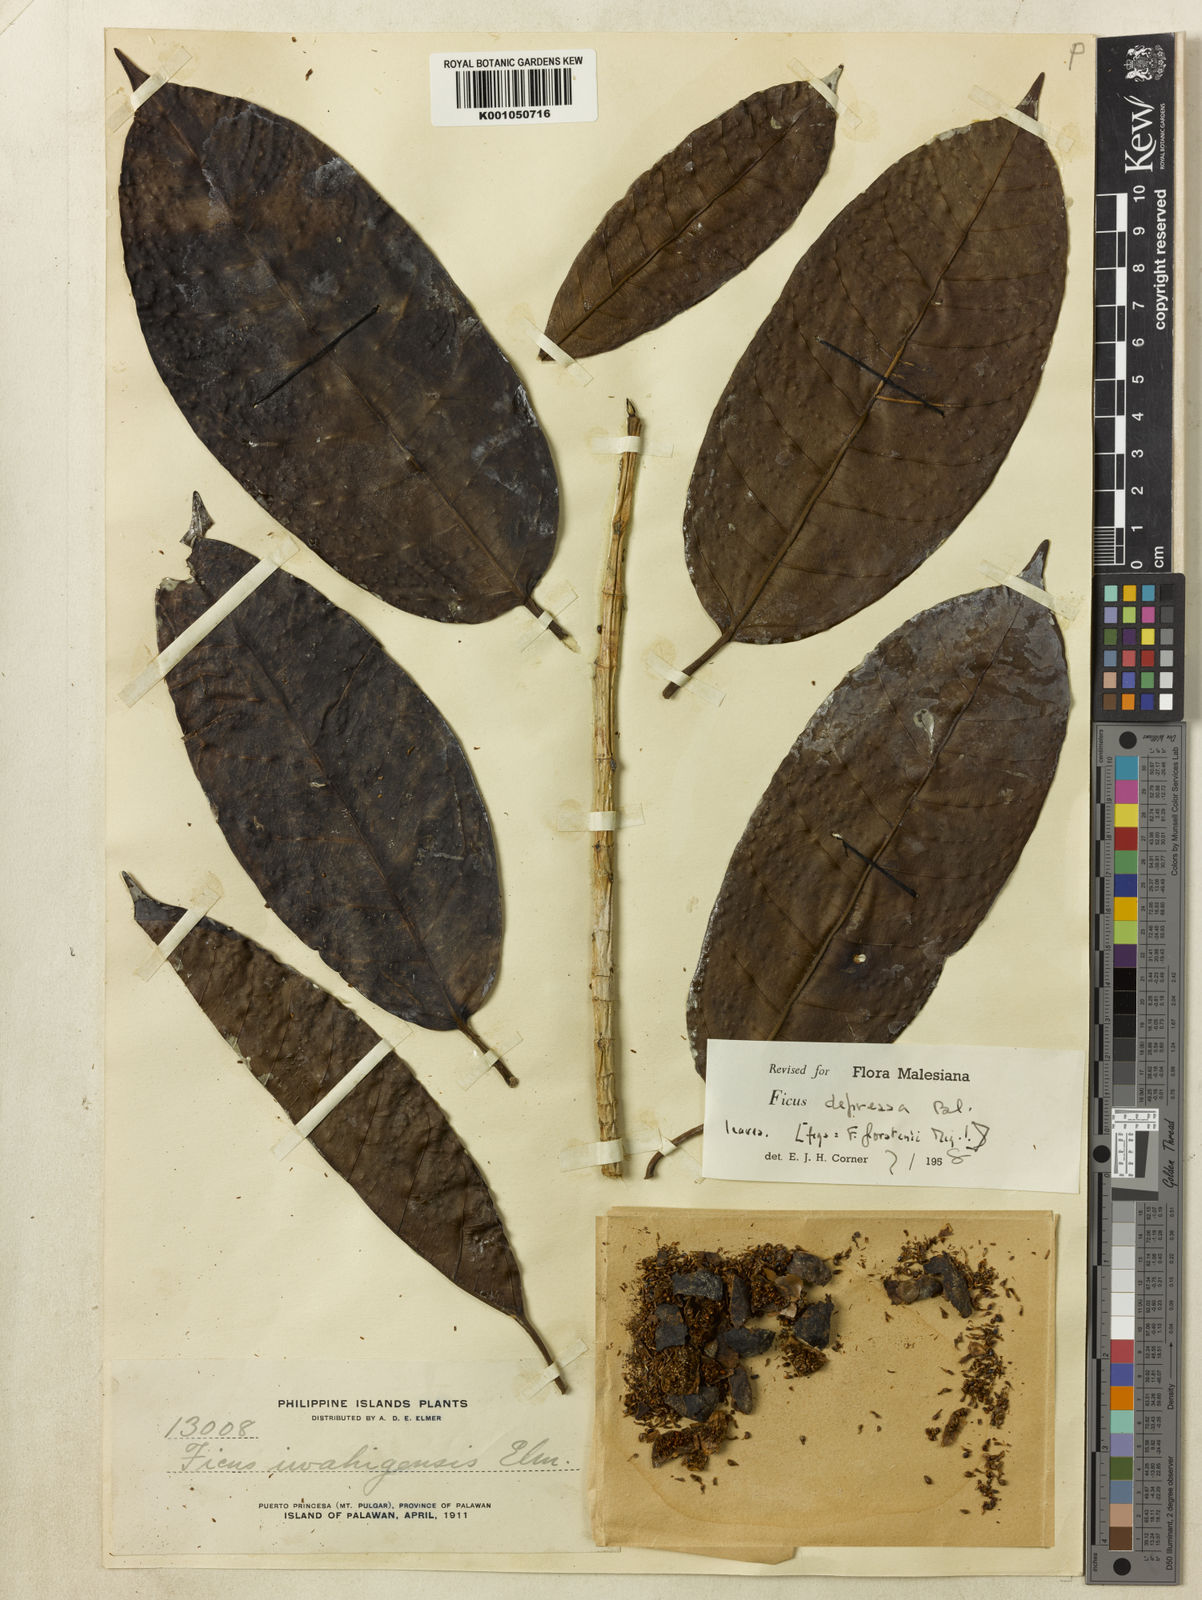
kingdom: Plantae
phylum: Tracheophyta
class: Magnoliopsida
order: Rosales
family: Moraceae
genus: Ficus
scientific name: Ficus depressa
